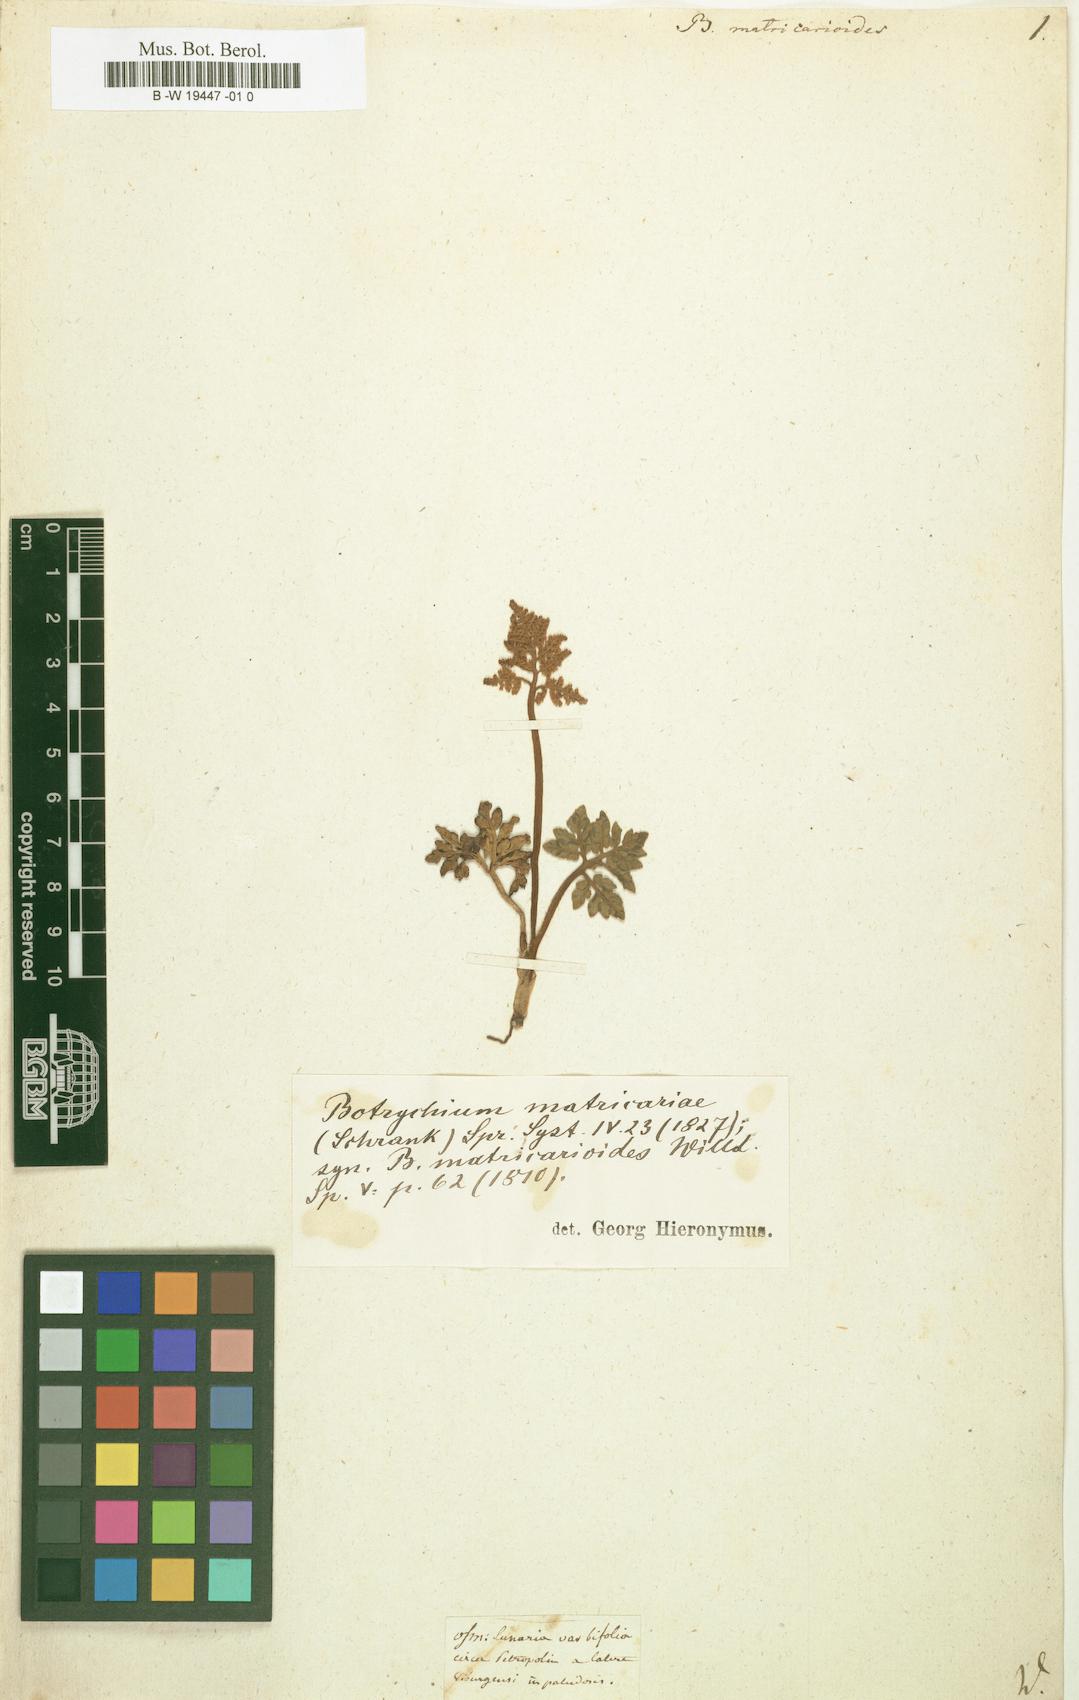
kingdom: Plantae
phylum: Tracheophyta
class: Polypodiopsida
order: Ophioglossales
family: Ophioglossaceae
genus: Sceptridium
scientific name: Sceptridium multifidum
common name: Leathery grape fern
